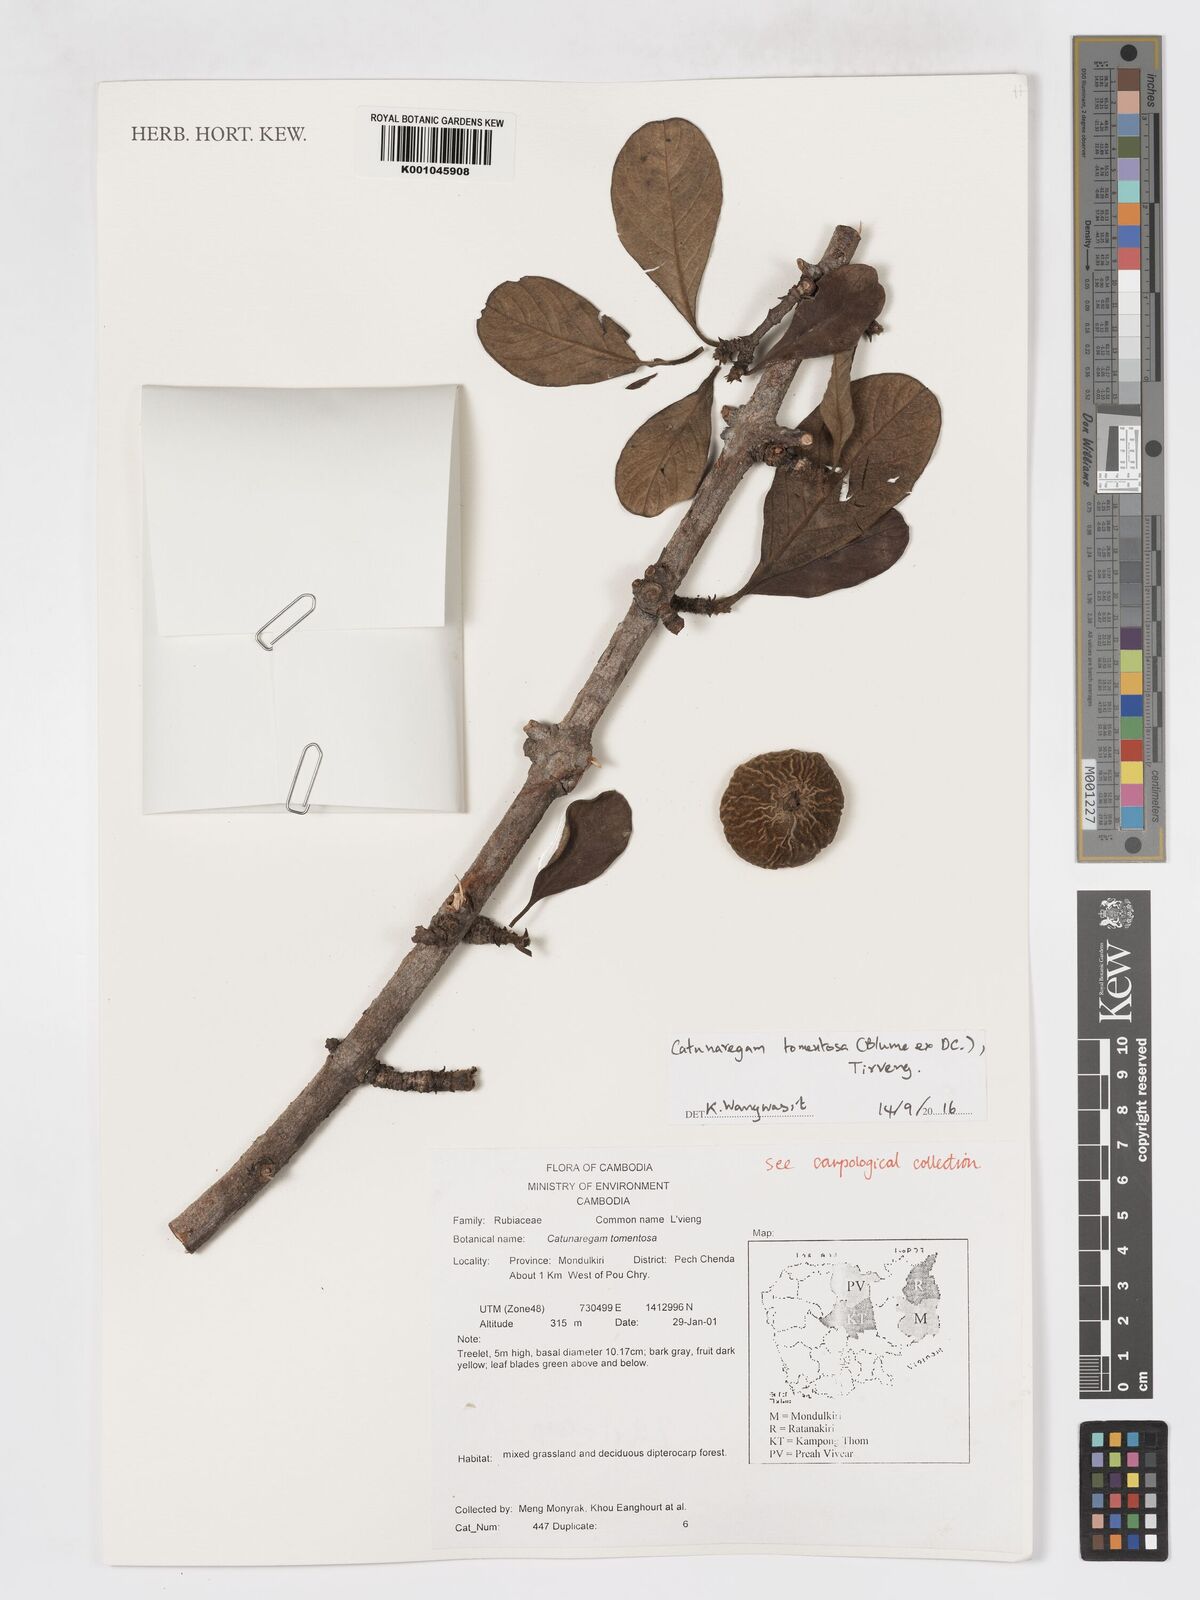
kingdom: Plantae
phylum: Tracheophyta
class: Magnoliopsida
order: Gentianales
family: Rubiaceae
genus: Catunaregam
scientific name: Catunaregam tomentosa
